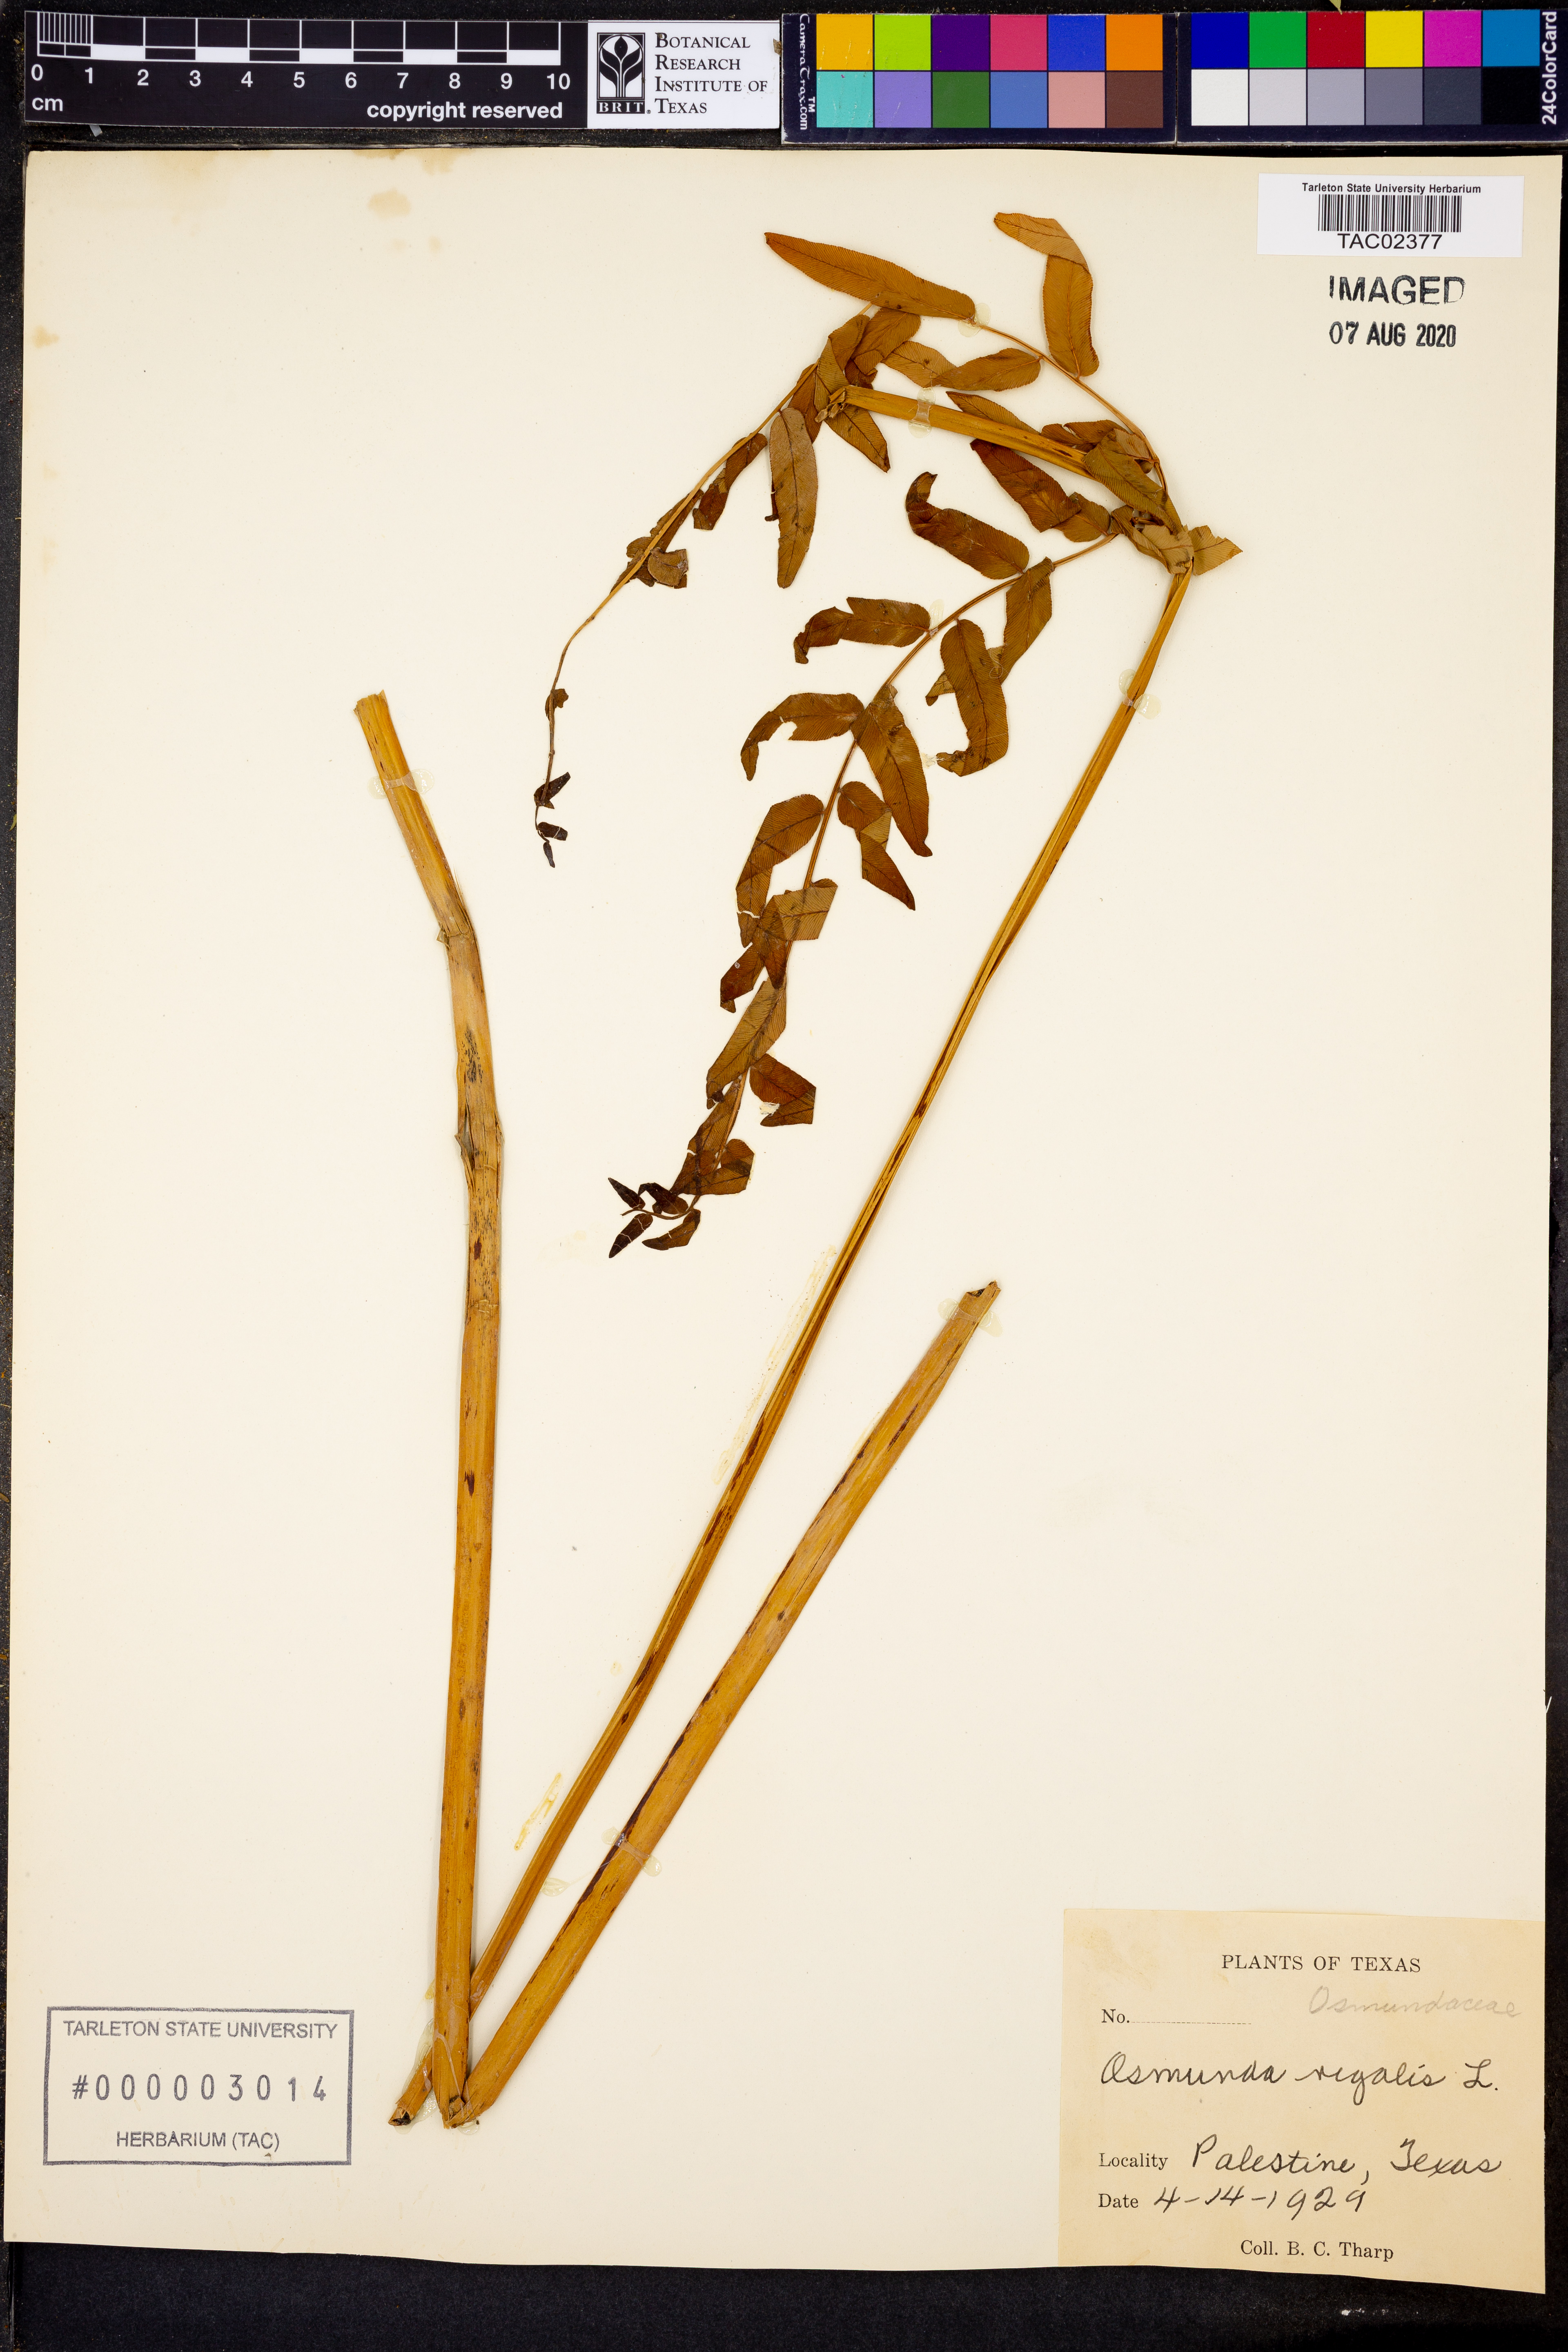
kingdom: Plantae
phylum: Tracheophyta
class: Polypodiopsida
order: Osmundales
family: Osmundaceae
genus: Osmunda
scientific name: Osmunda regalis
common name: Royal fern
